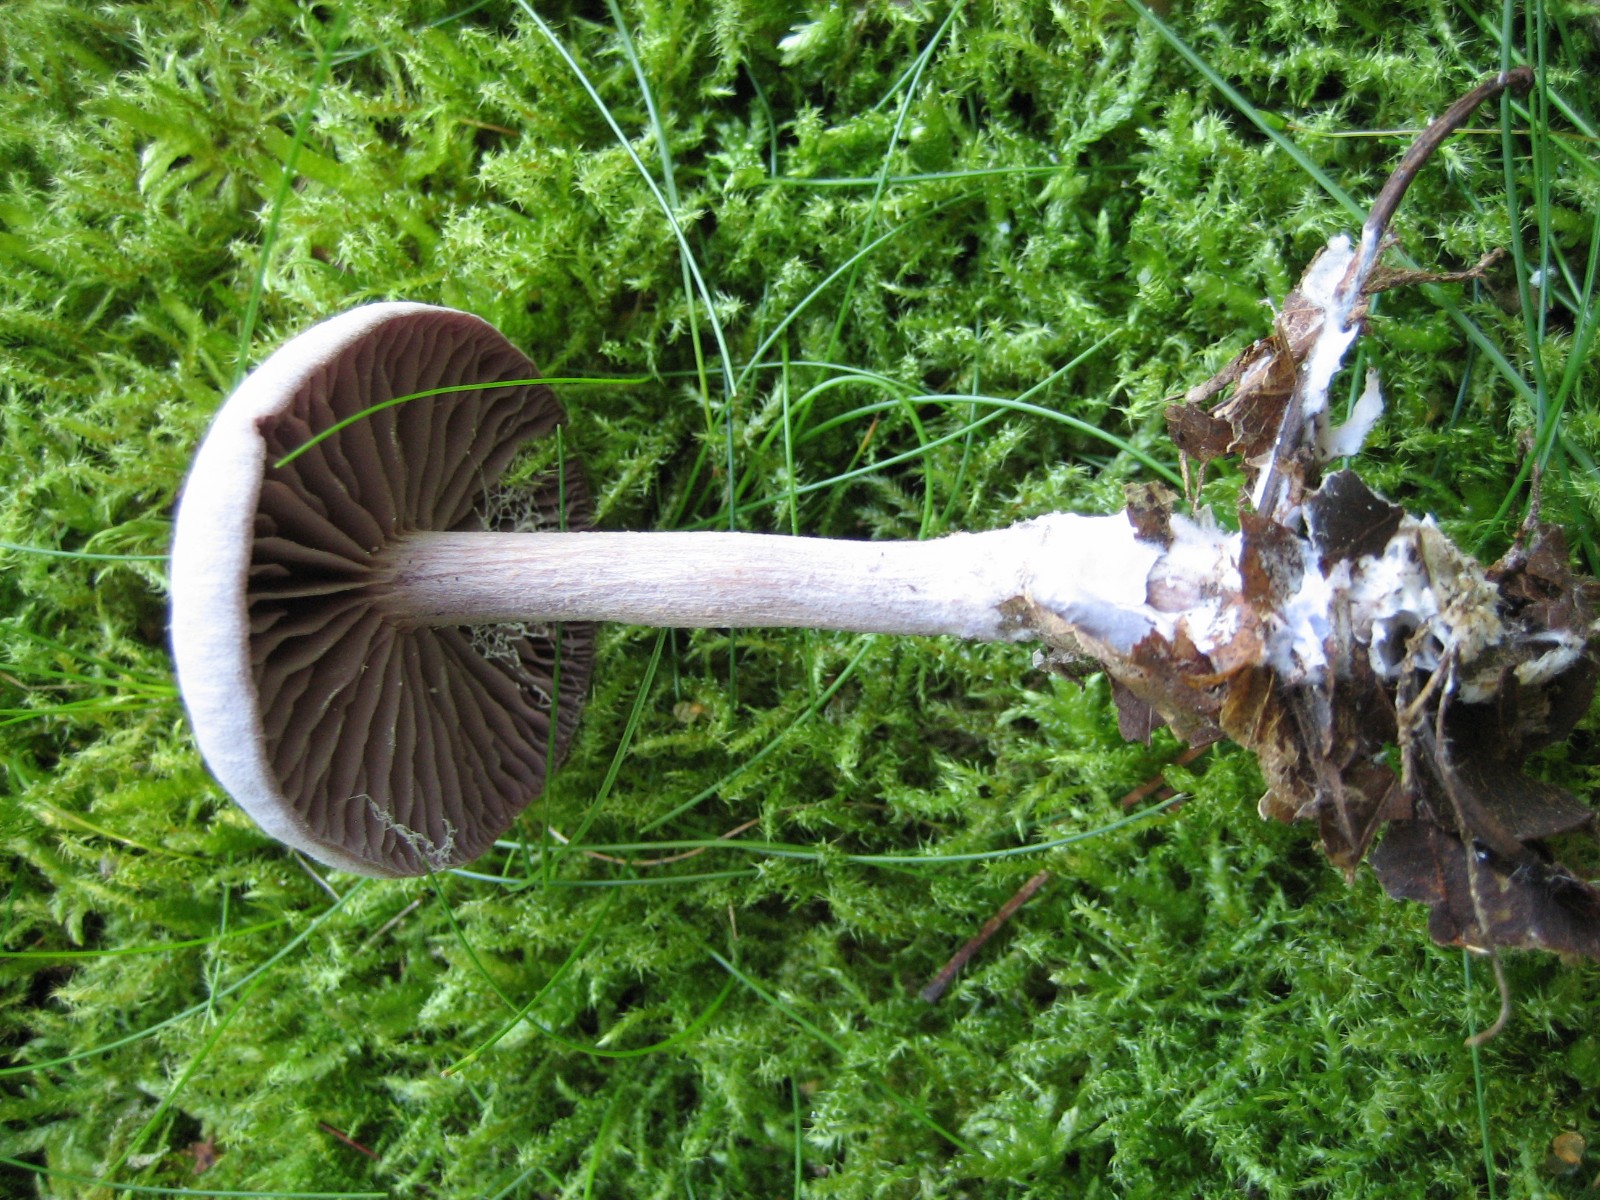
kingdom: Fungi
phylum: Basidiomycota
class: Agaricomycetes
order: Agaricales
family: Hydnangiaceae
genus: Laccaria
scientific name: Laccaria amethystina
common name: violet ametysthat
